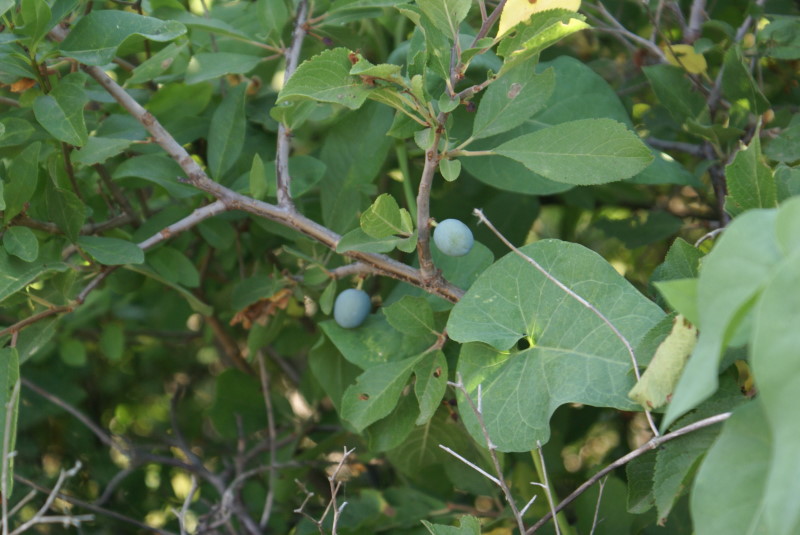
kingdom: Plantae
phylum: Tracheophyta
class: Magnoliopsida
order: Rosales
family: Rosaceae
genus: Prunus
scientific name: Prunus spinosa
